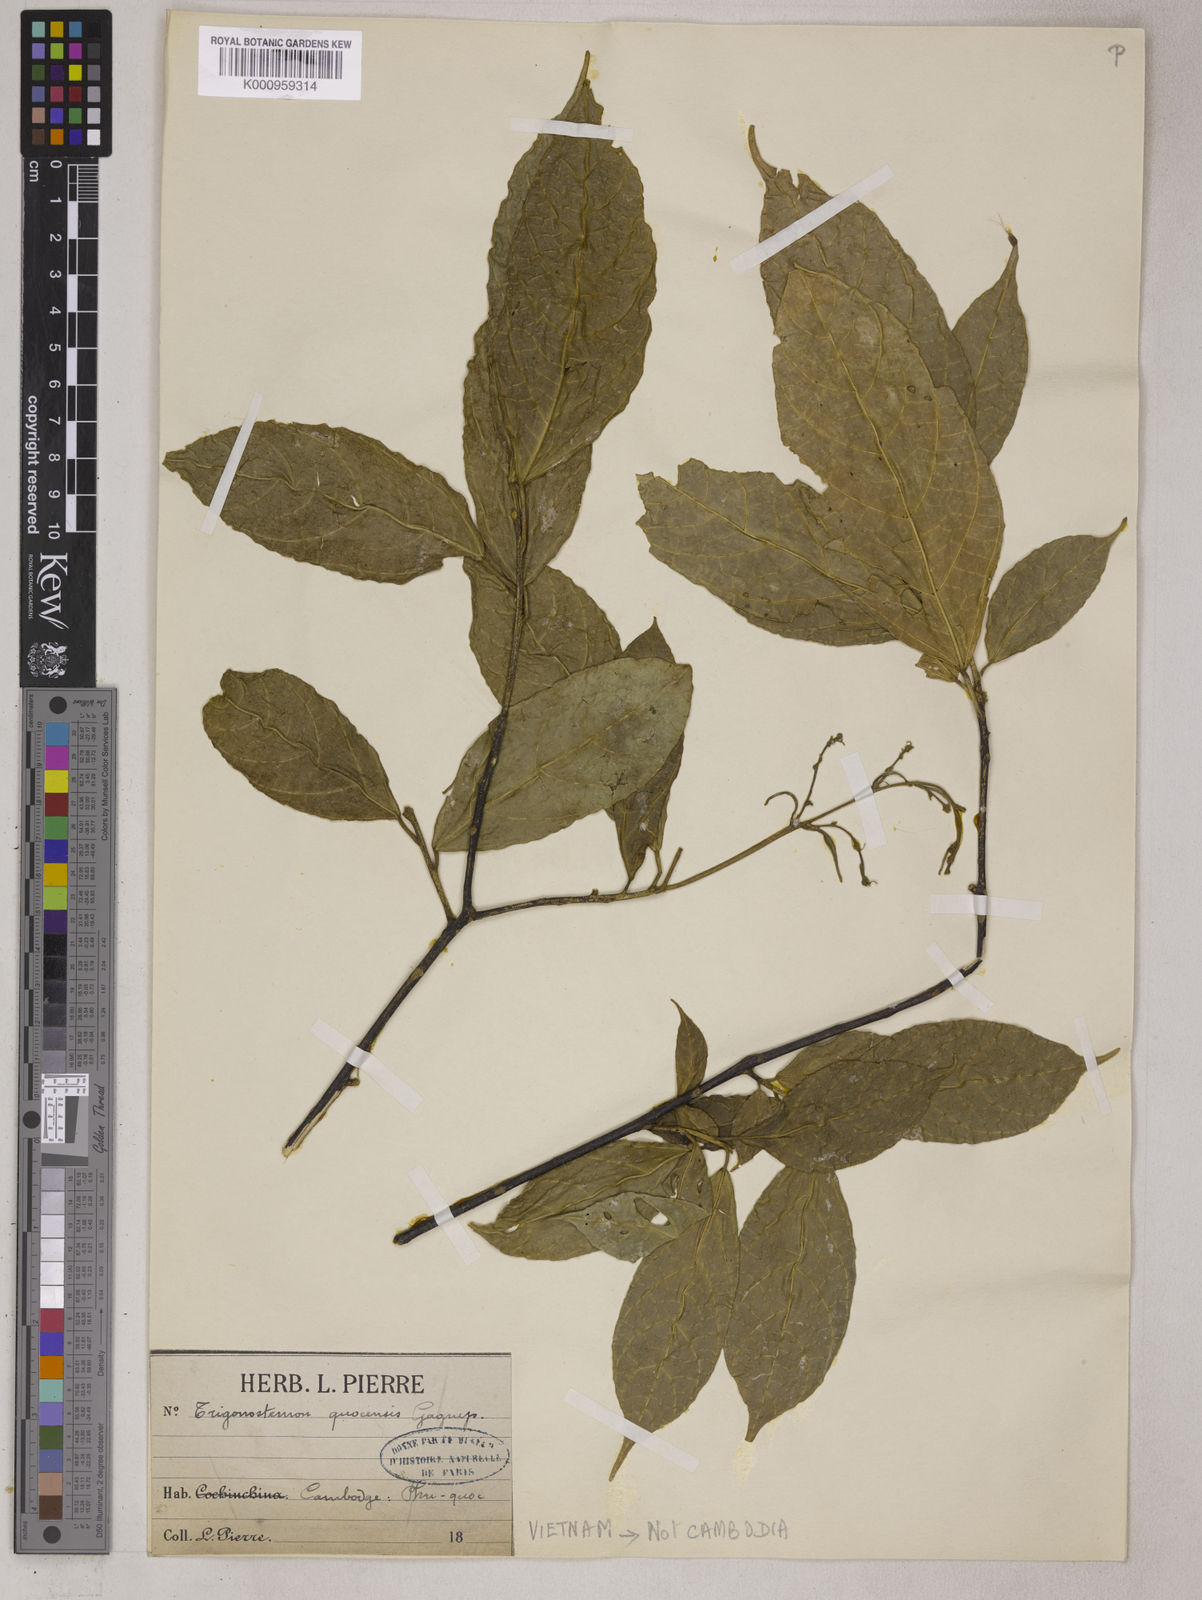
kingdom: Plantae
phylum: Tracheophyta
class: Magnoliopsida
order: Malpighiales
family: Euphorbiaceae
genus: Trigonostemon
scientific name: Trigonostemon quocensis
